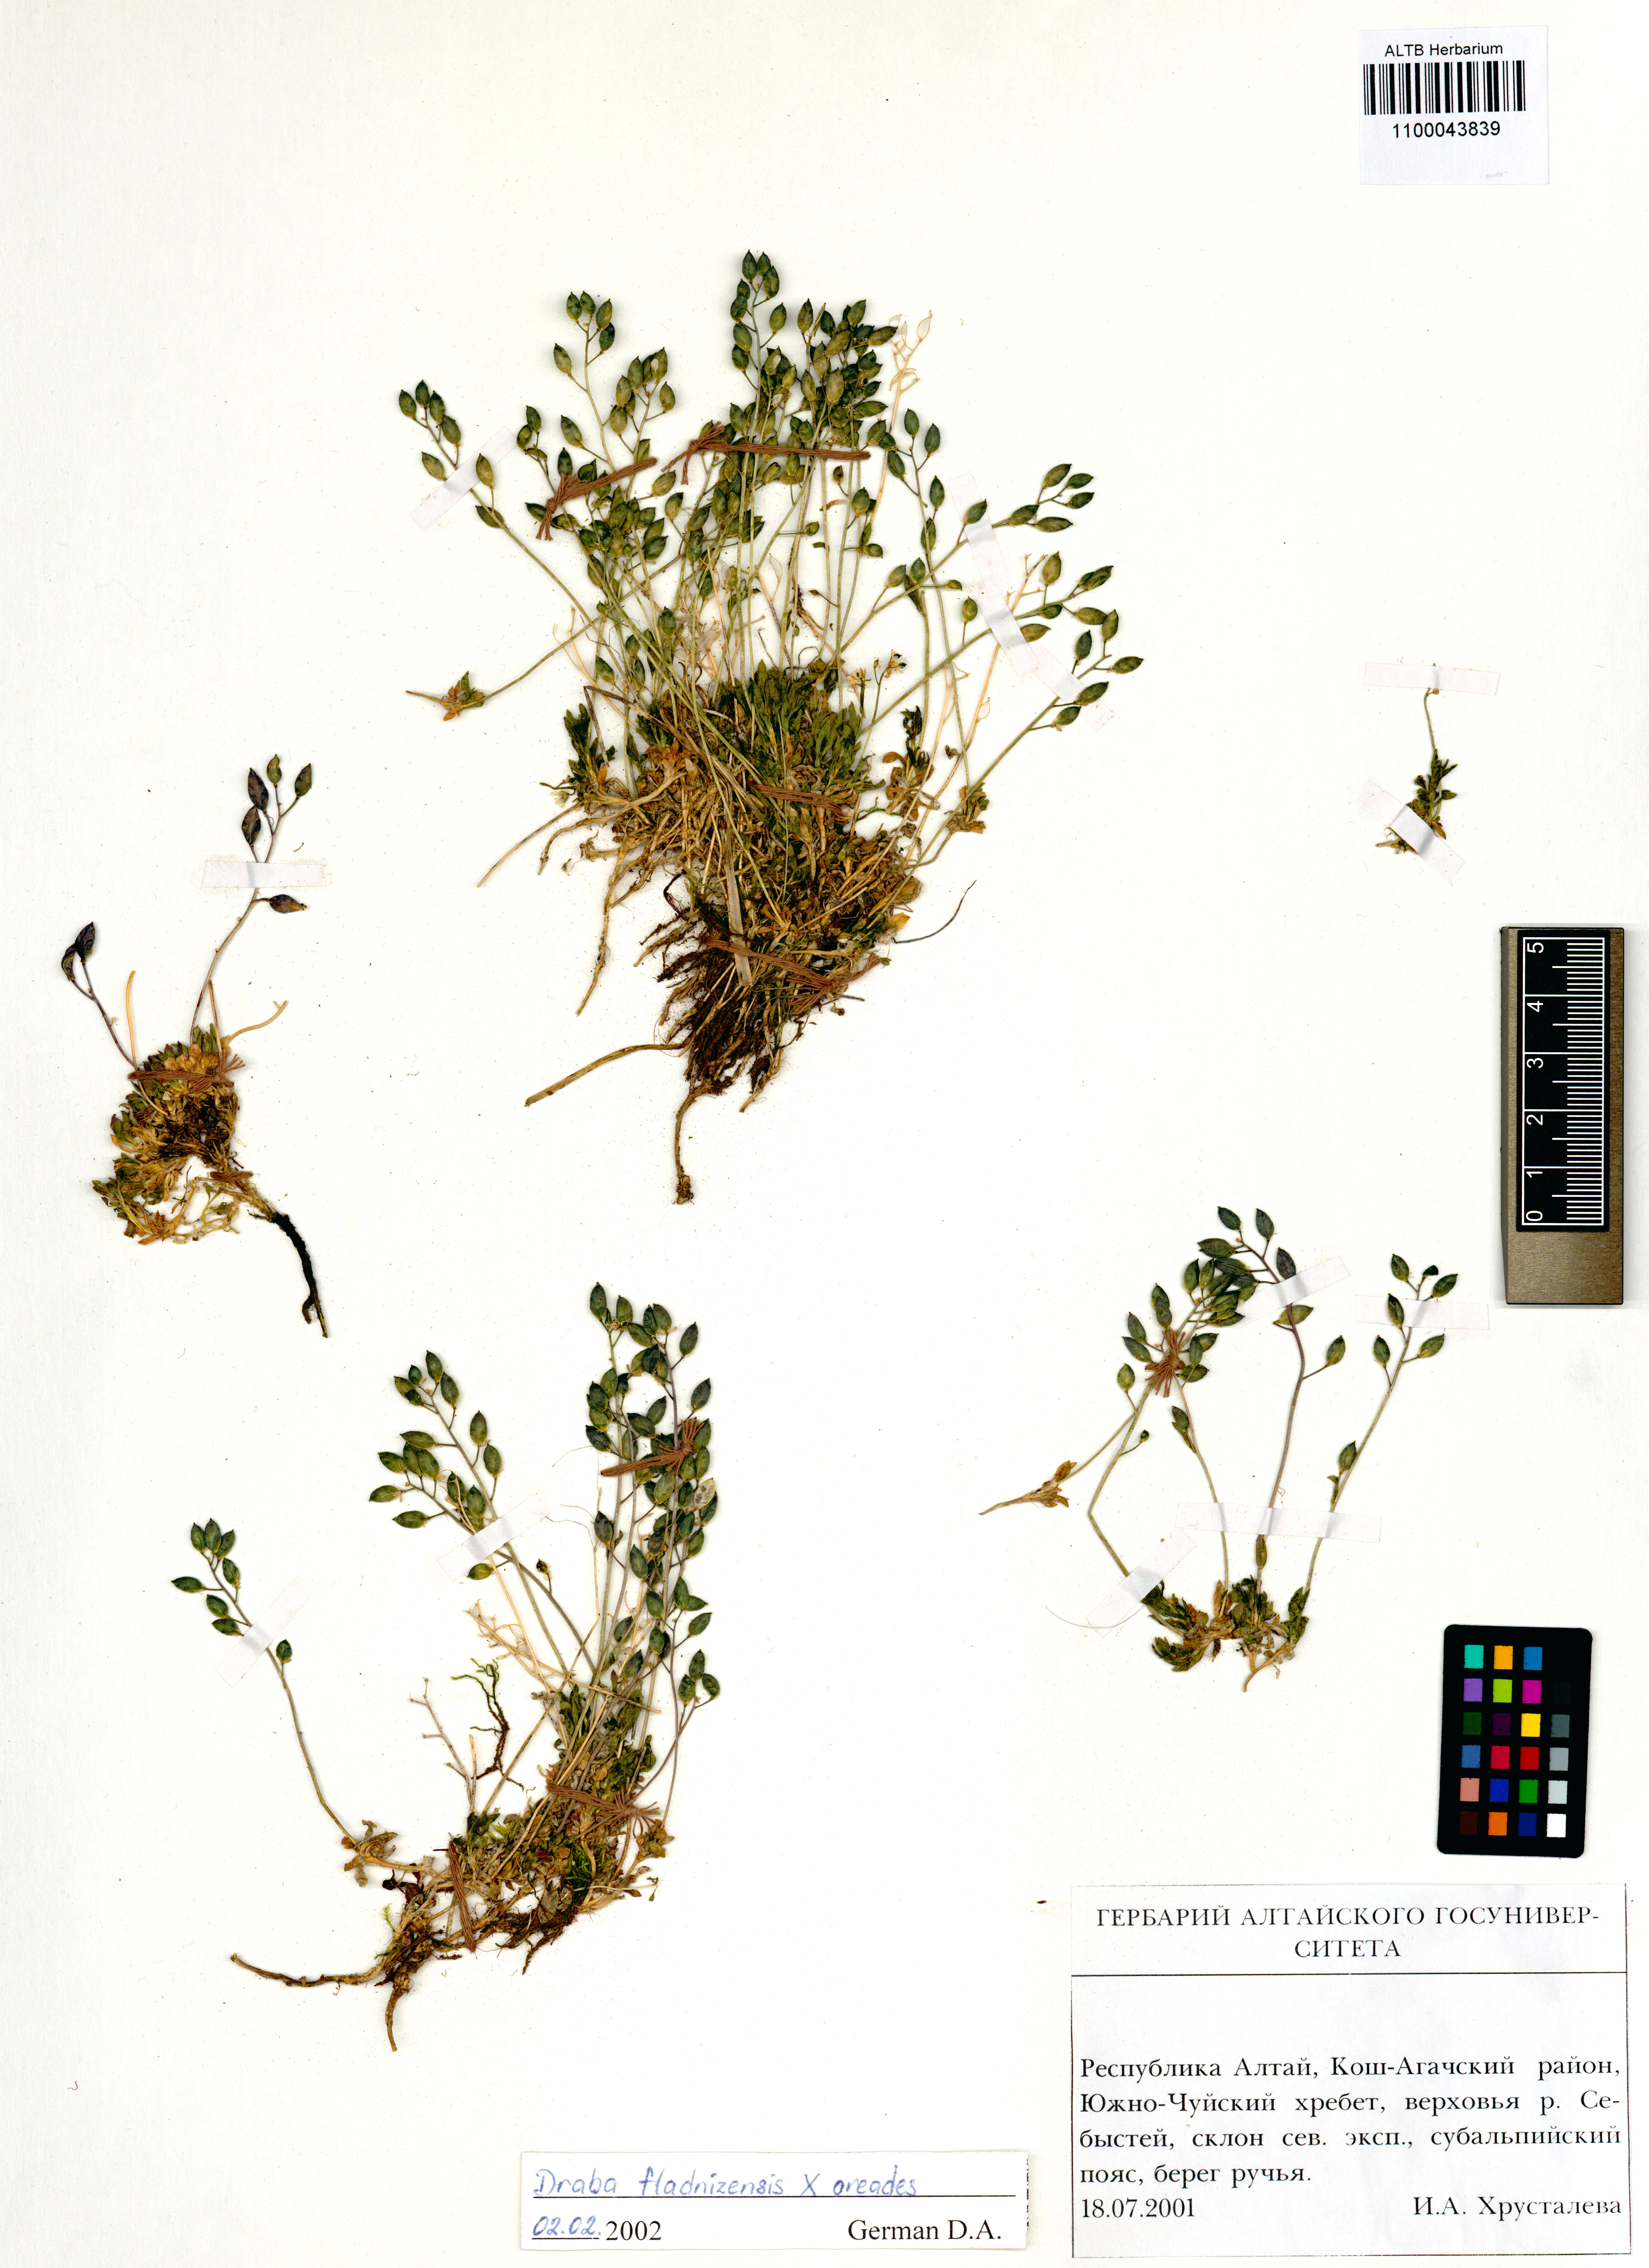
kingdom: Plantae
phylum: Tracheophyta
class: Magnoliopsida
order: Brassicales
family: Brassicaceae
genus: Draba
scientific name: Draba fladnizensis
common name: Austrian draba
